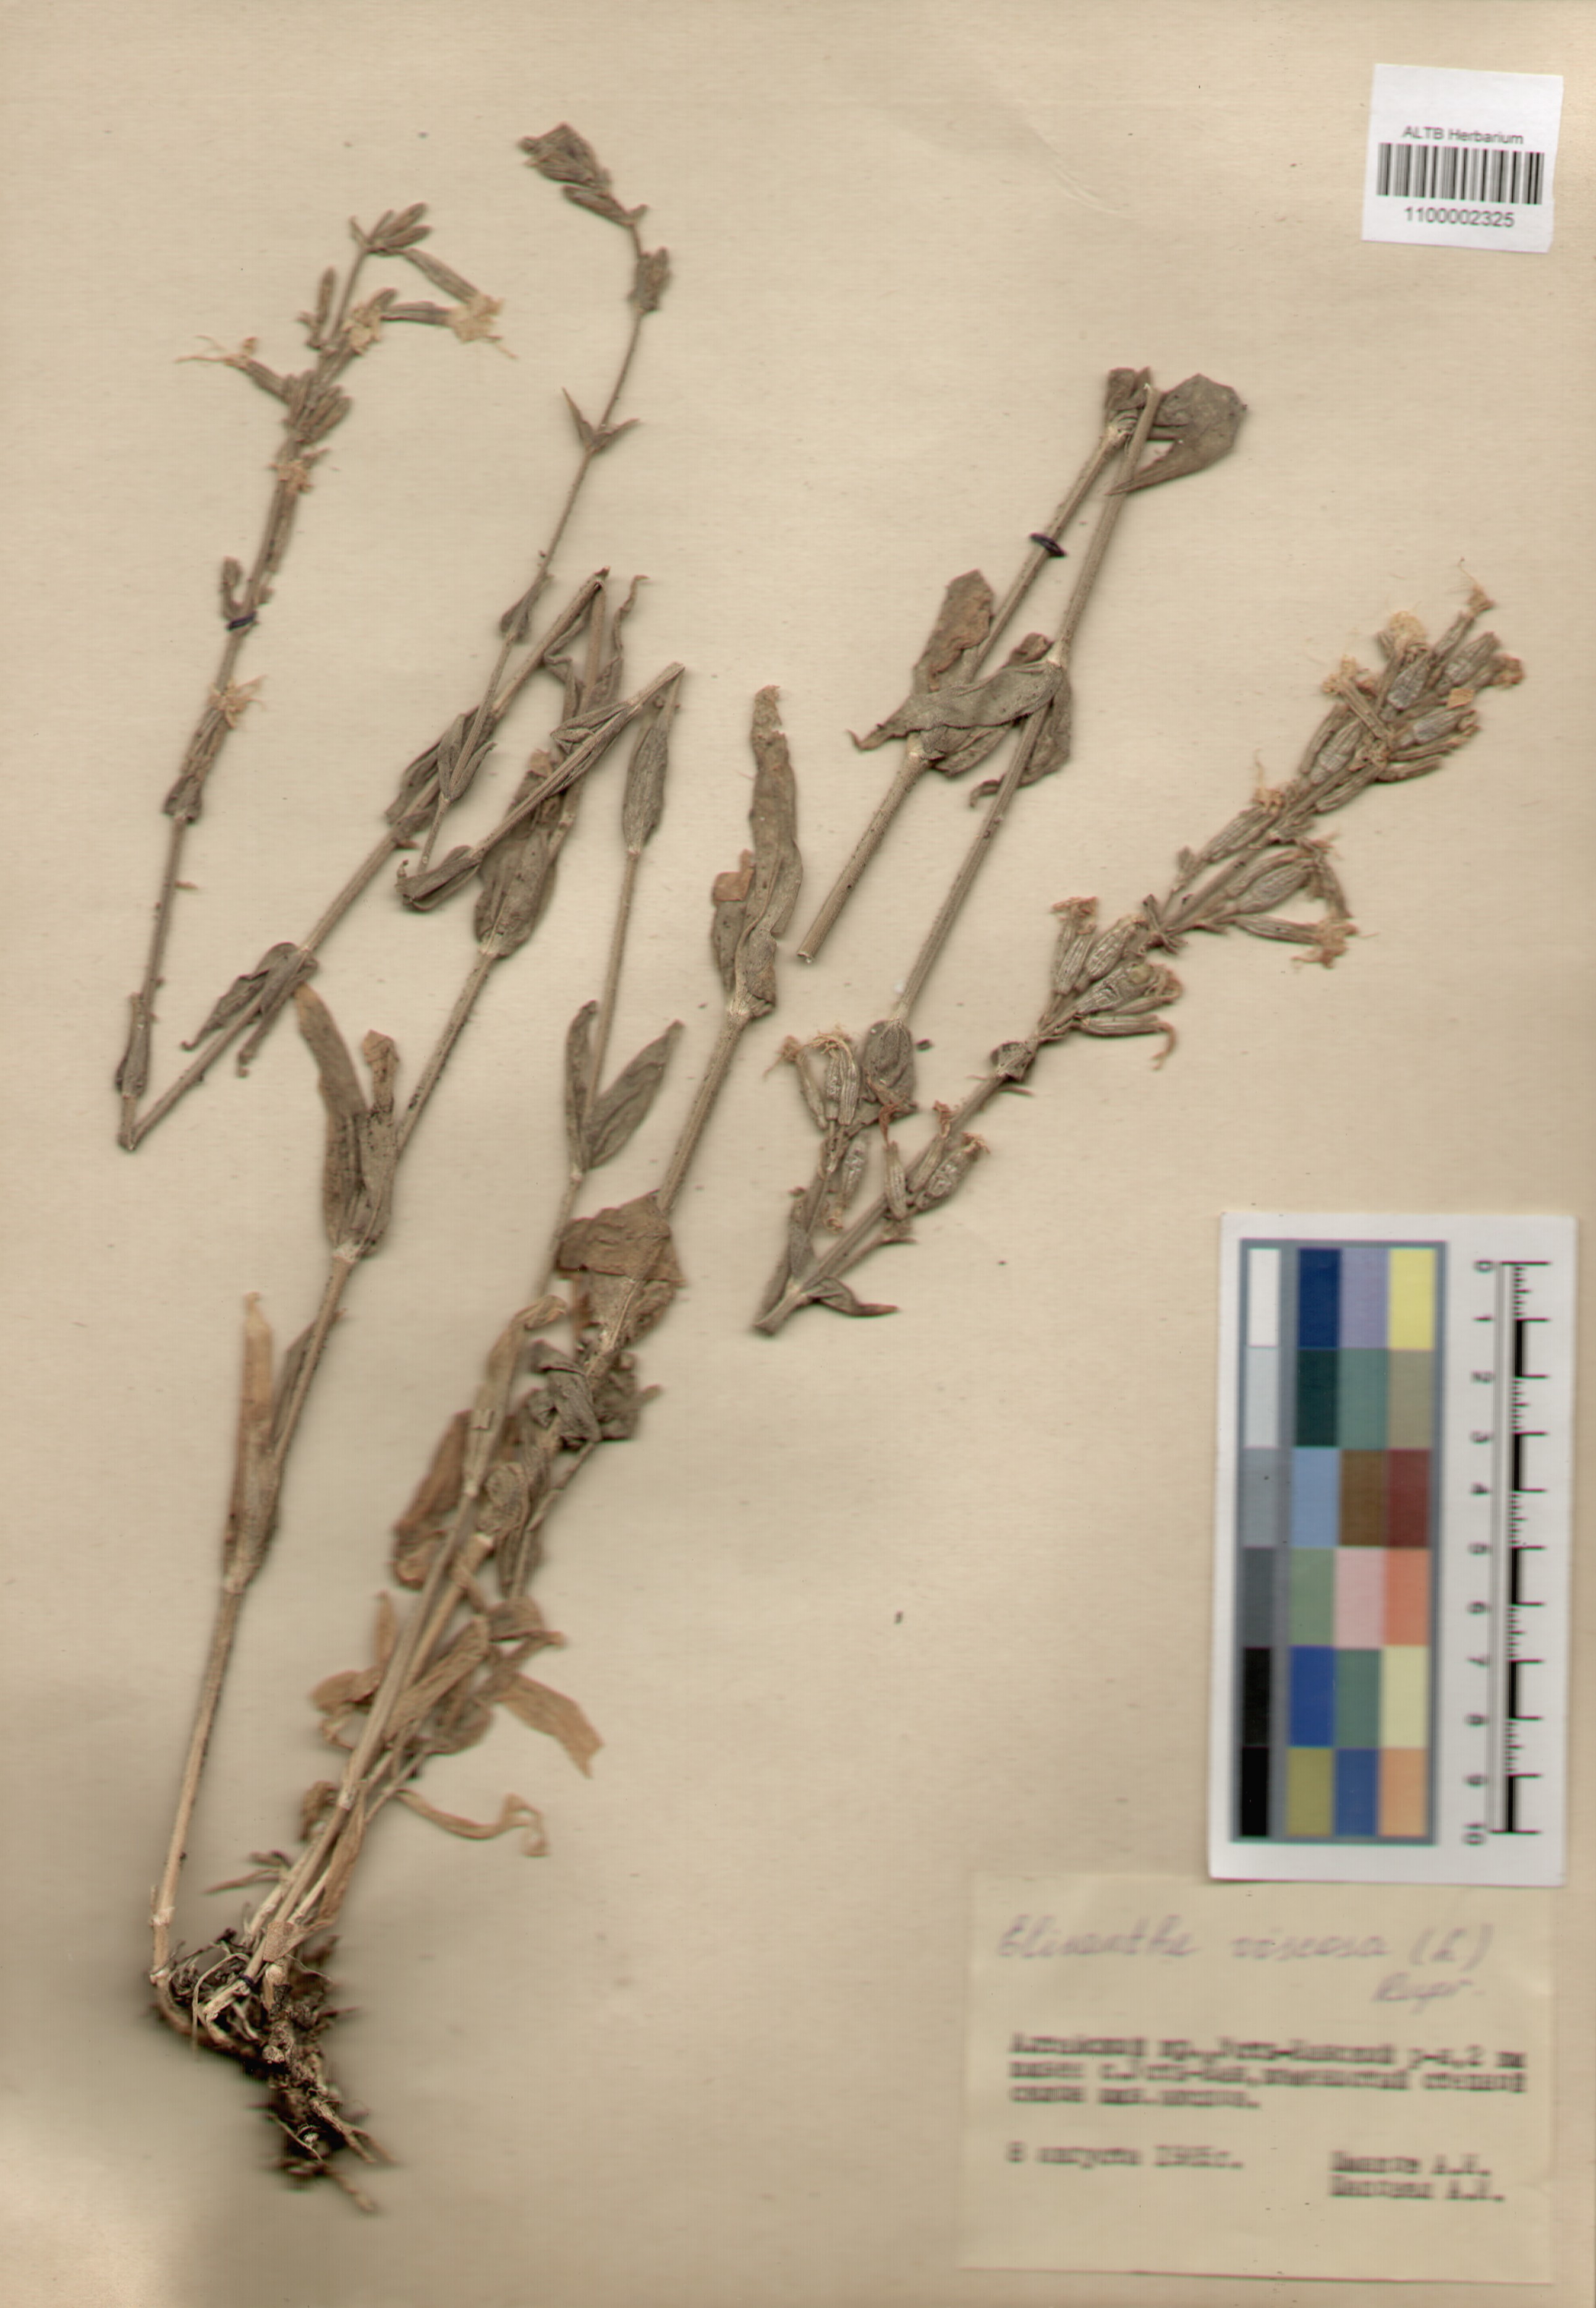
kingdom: Plantae
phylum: Tracheophyta
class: Magnoliopsida
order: Caryophyllales
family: Caryophyllaceae
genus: Silene
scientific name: Silene viscosa
